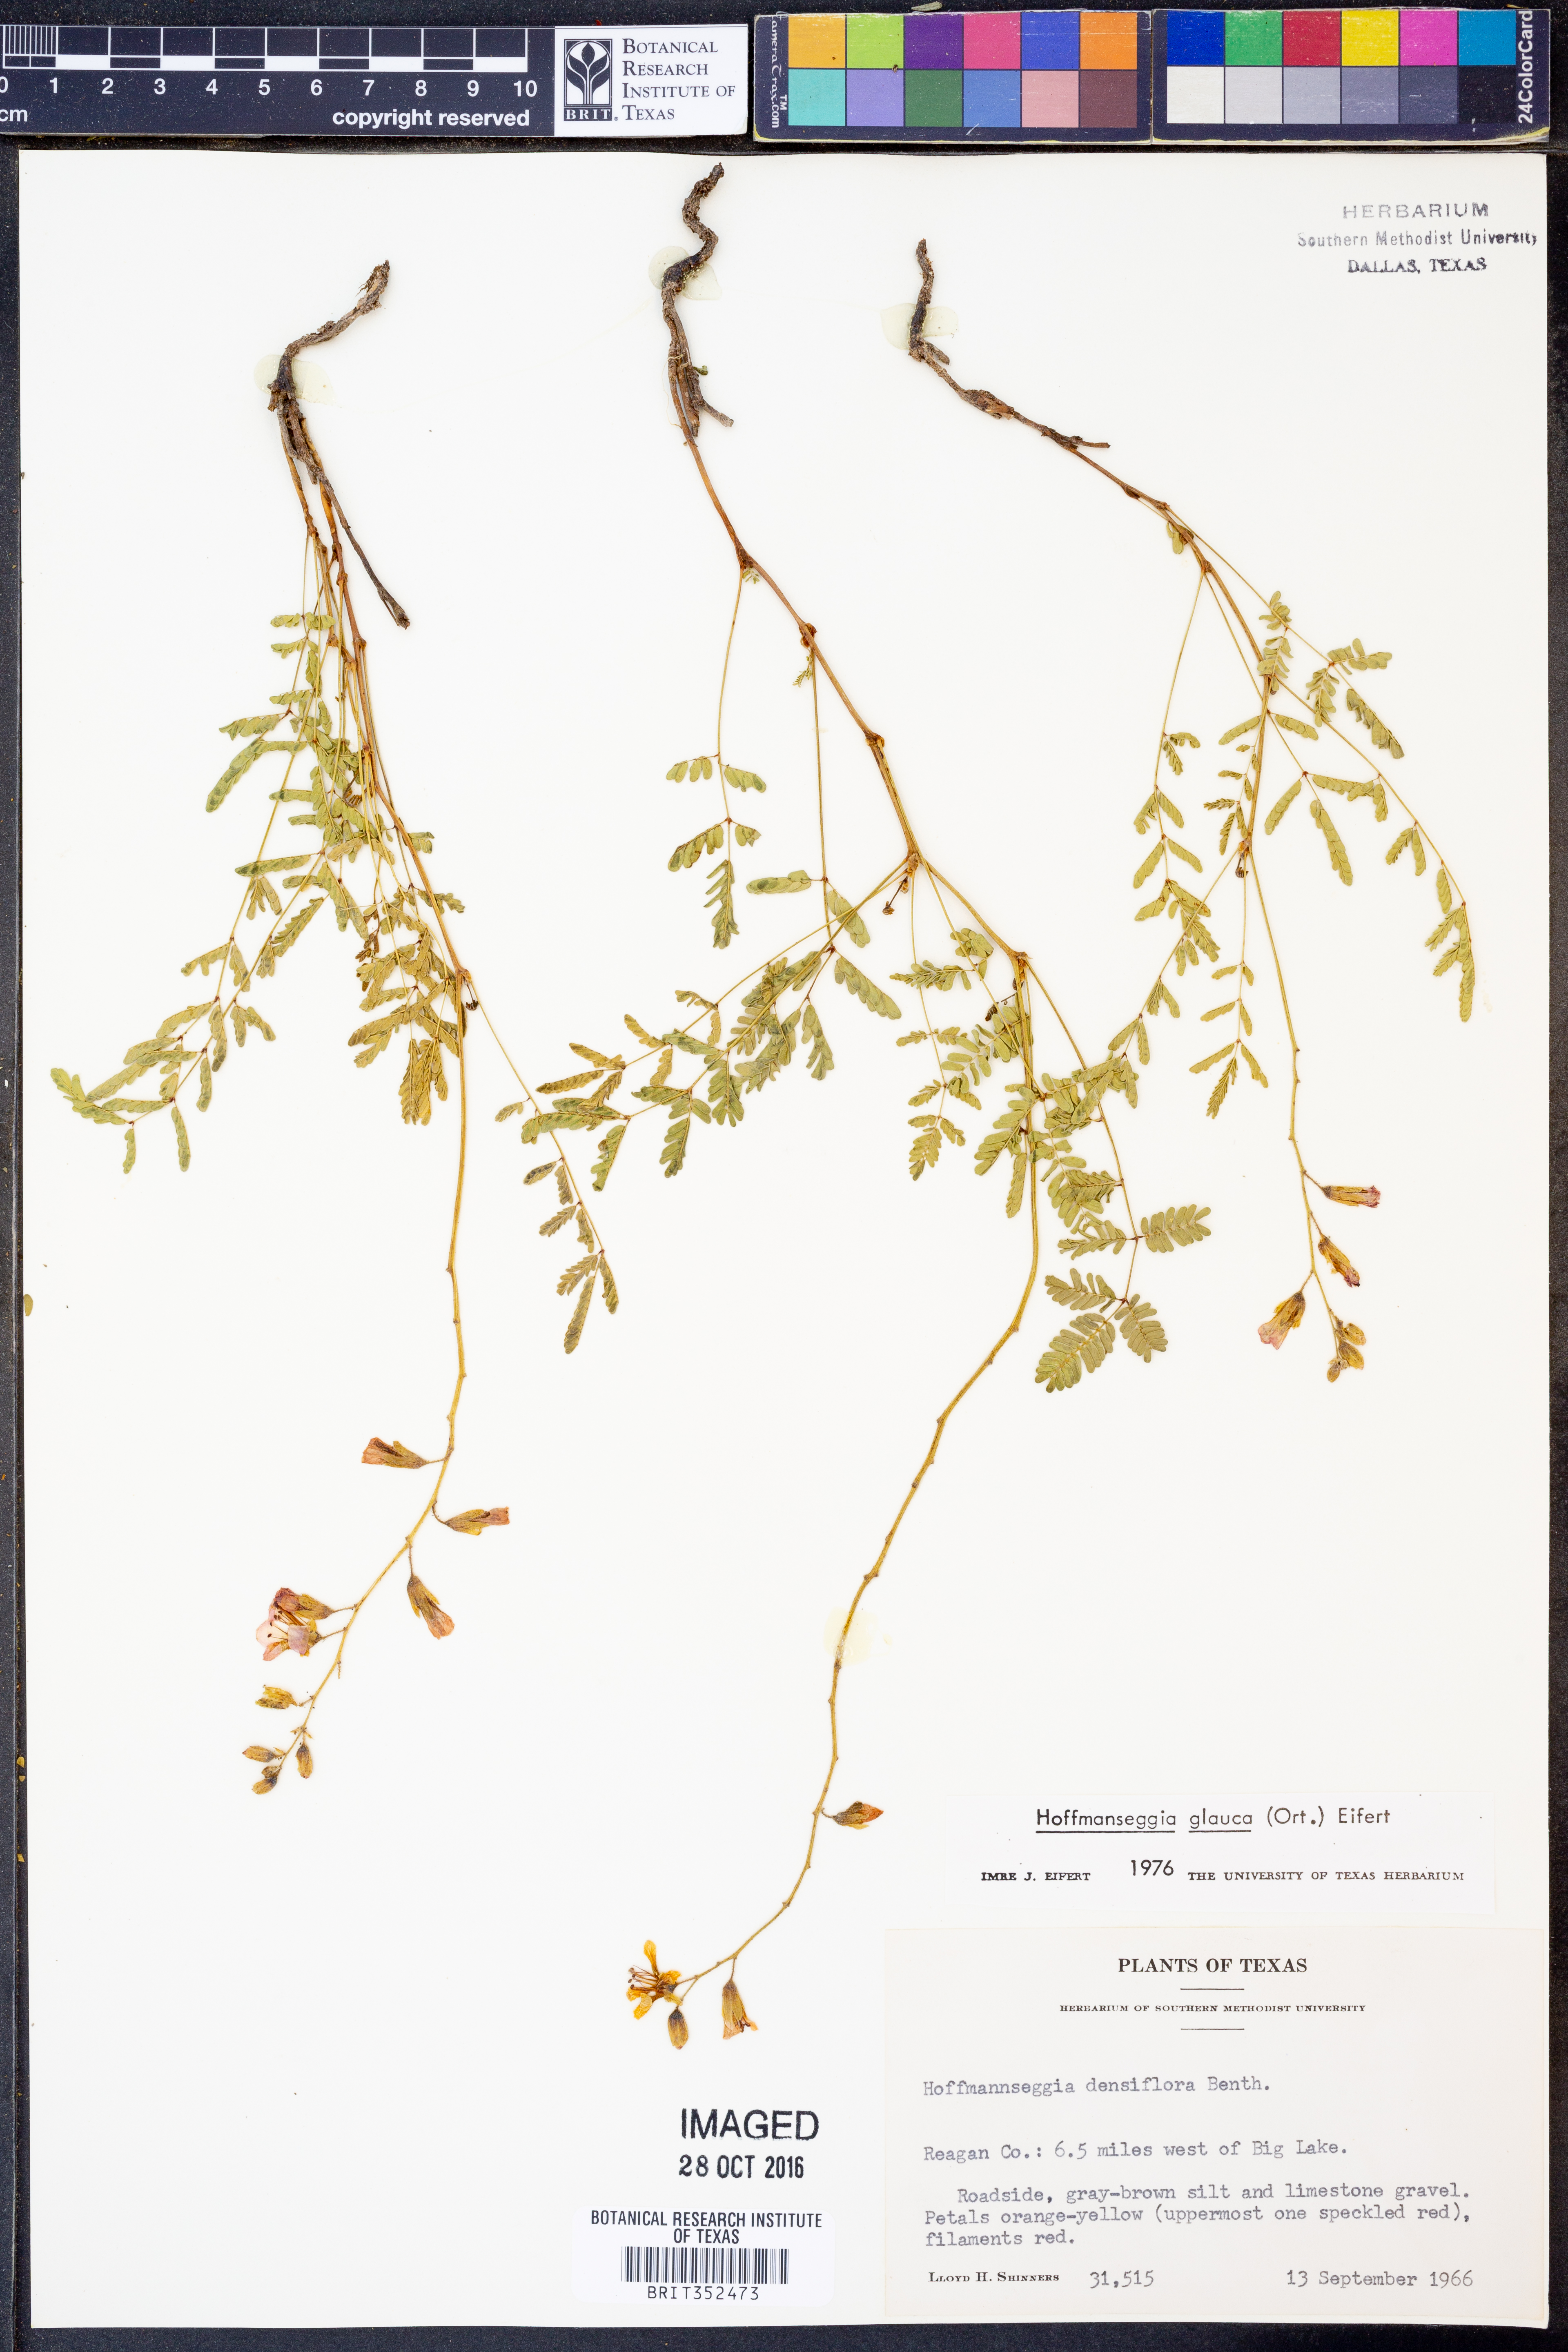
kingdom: Plantae
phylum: Tracheophyta
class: Magnoliopsida
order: Fabales
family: Fabaceae
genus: Hoffmannseggia
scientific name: Hoffmannseggia glauca
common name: Pignut
